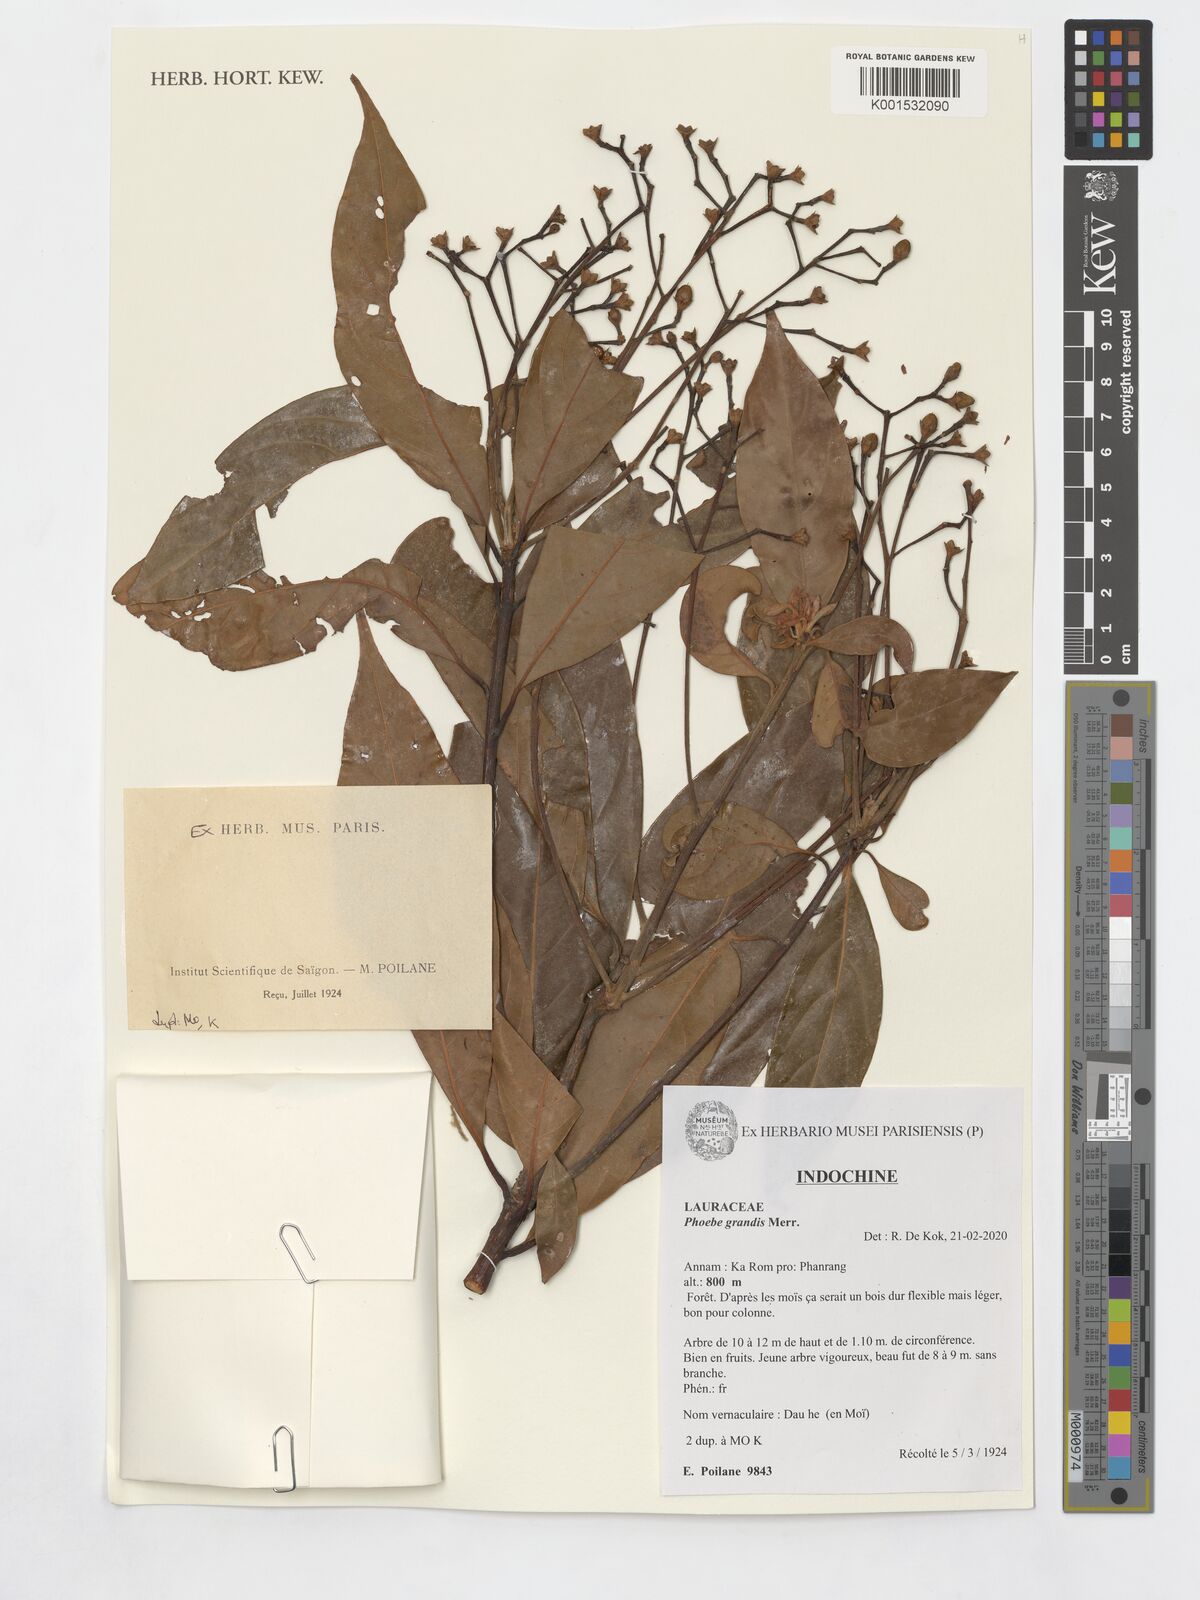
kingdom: Plantae
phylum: Tracheophyta
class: Magnoliopsida
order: Laurales
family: Lauraceae
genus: Phoebe
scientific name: Phoebe grandis
